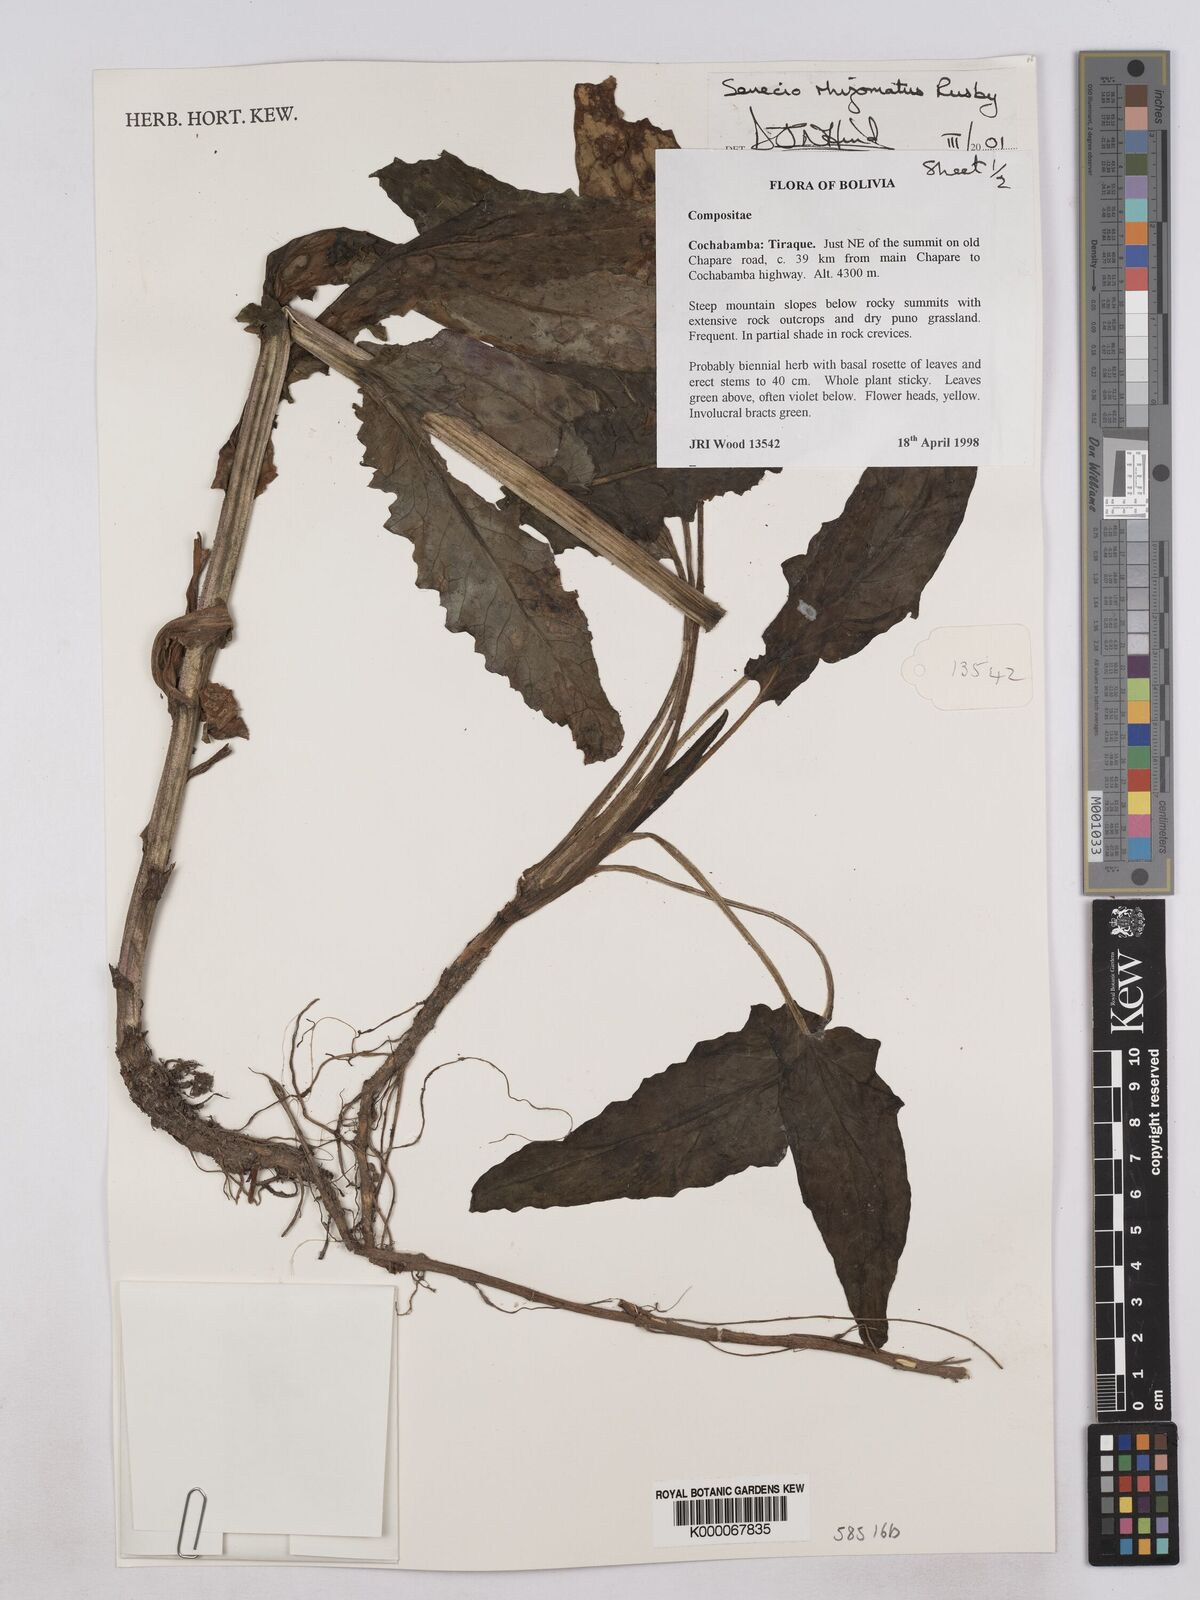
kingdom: Plantae
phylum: Tracheophyta
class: Magnoliopsida
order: Asterales
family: Asteraceae
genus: Senecio
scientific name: Senecio rhizomatus
